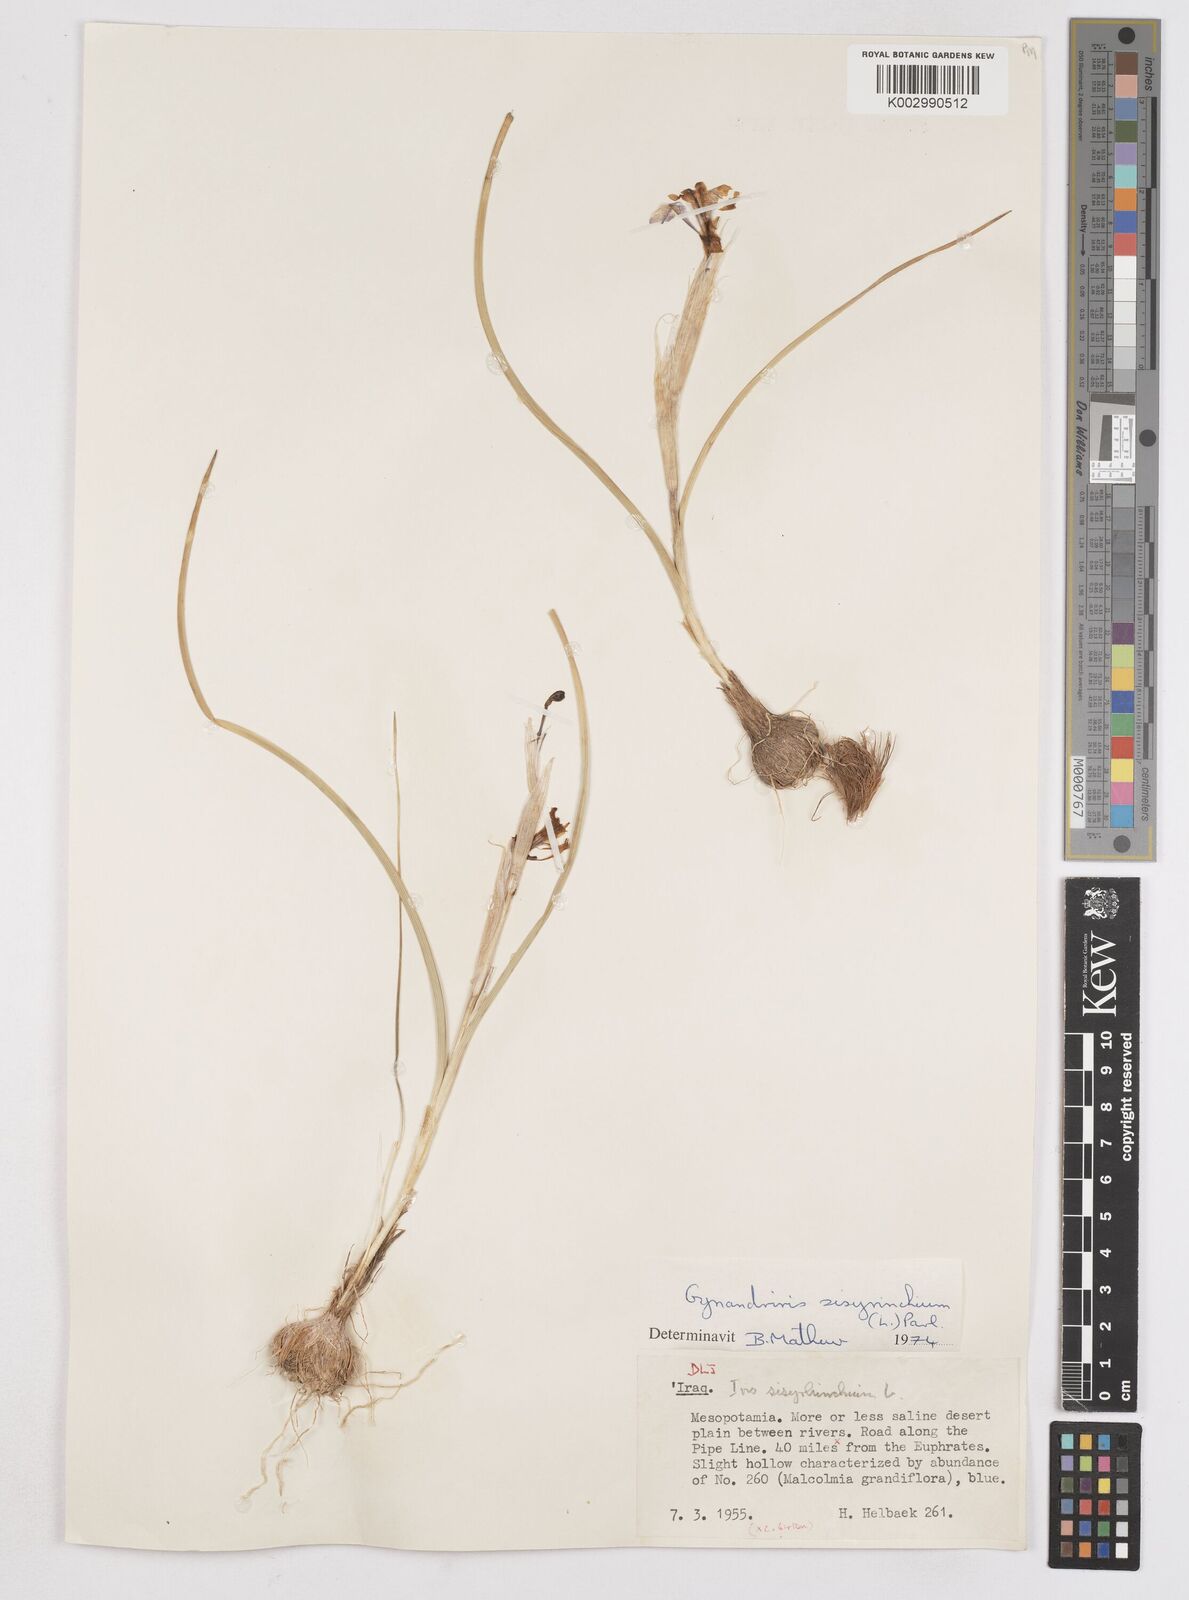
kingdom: Plantae
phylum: Tracheophyta
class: Liliopsida
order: Asparagales
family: Iridaceae
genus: Moraea
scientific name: Moraea sisyrinchium
